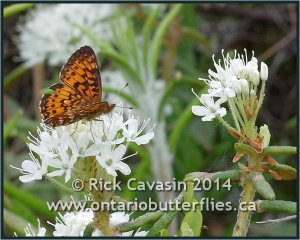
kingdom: Animalia
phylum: Arthropoda
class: Insecta
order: Lepidoptera
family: Nymphalidae
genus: Boloria
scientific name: Boloria selene
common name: Silver-bordered Fritillary
